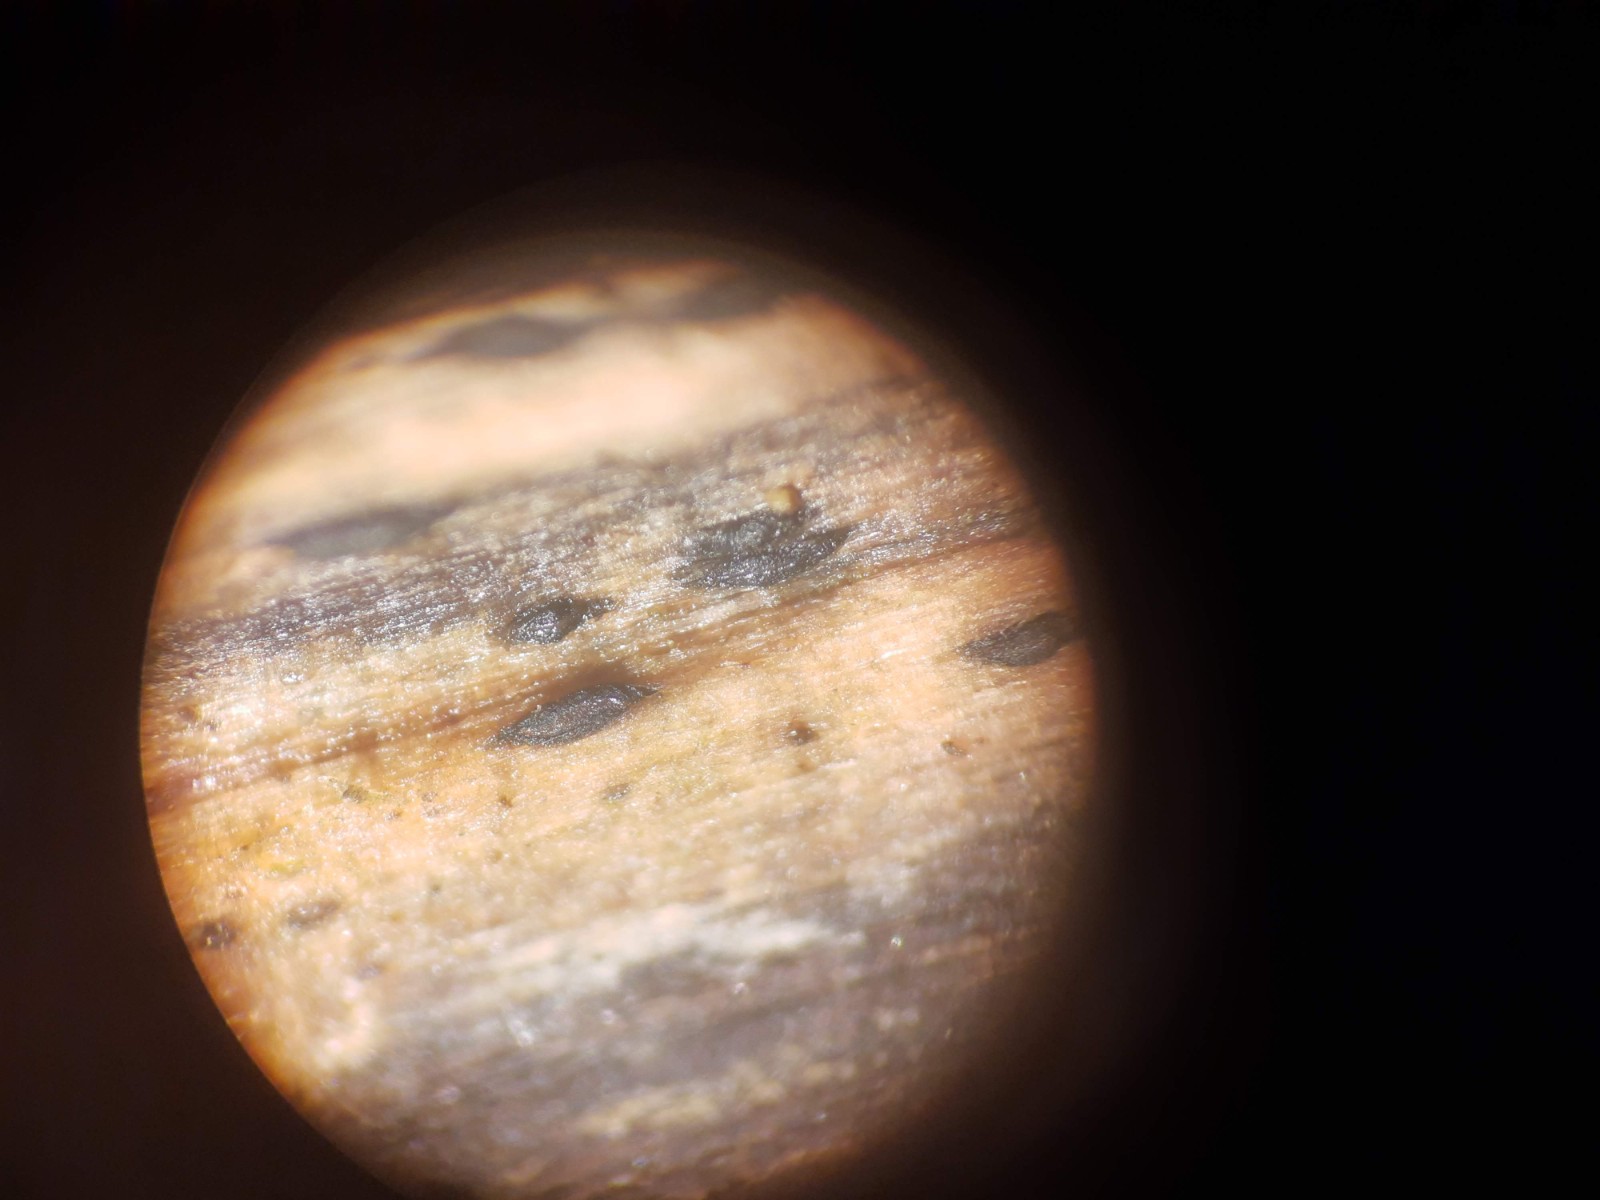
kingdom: Fungi
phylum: Ascomycota
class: Dothideomycetes
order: Mytilinidiales
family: Gloniaceae
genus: Glonium
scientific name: Glonium lineare
